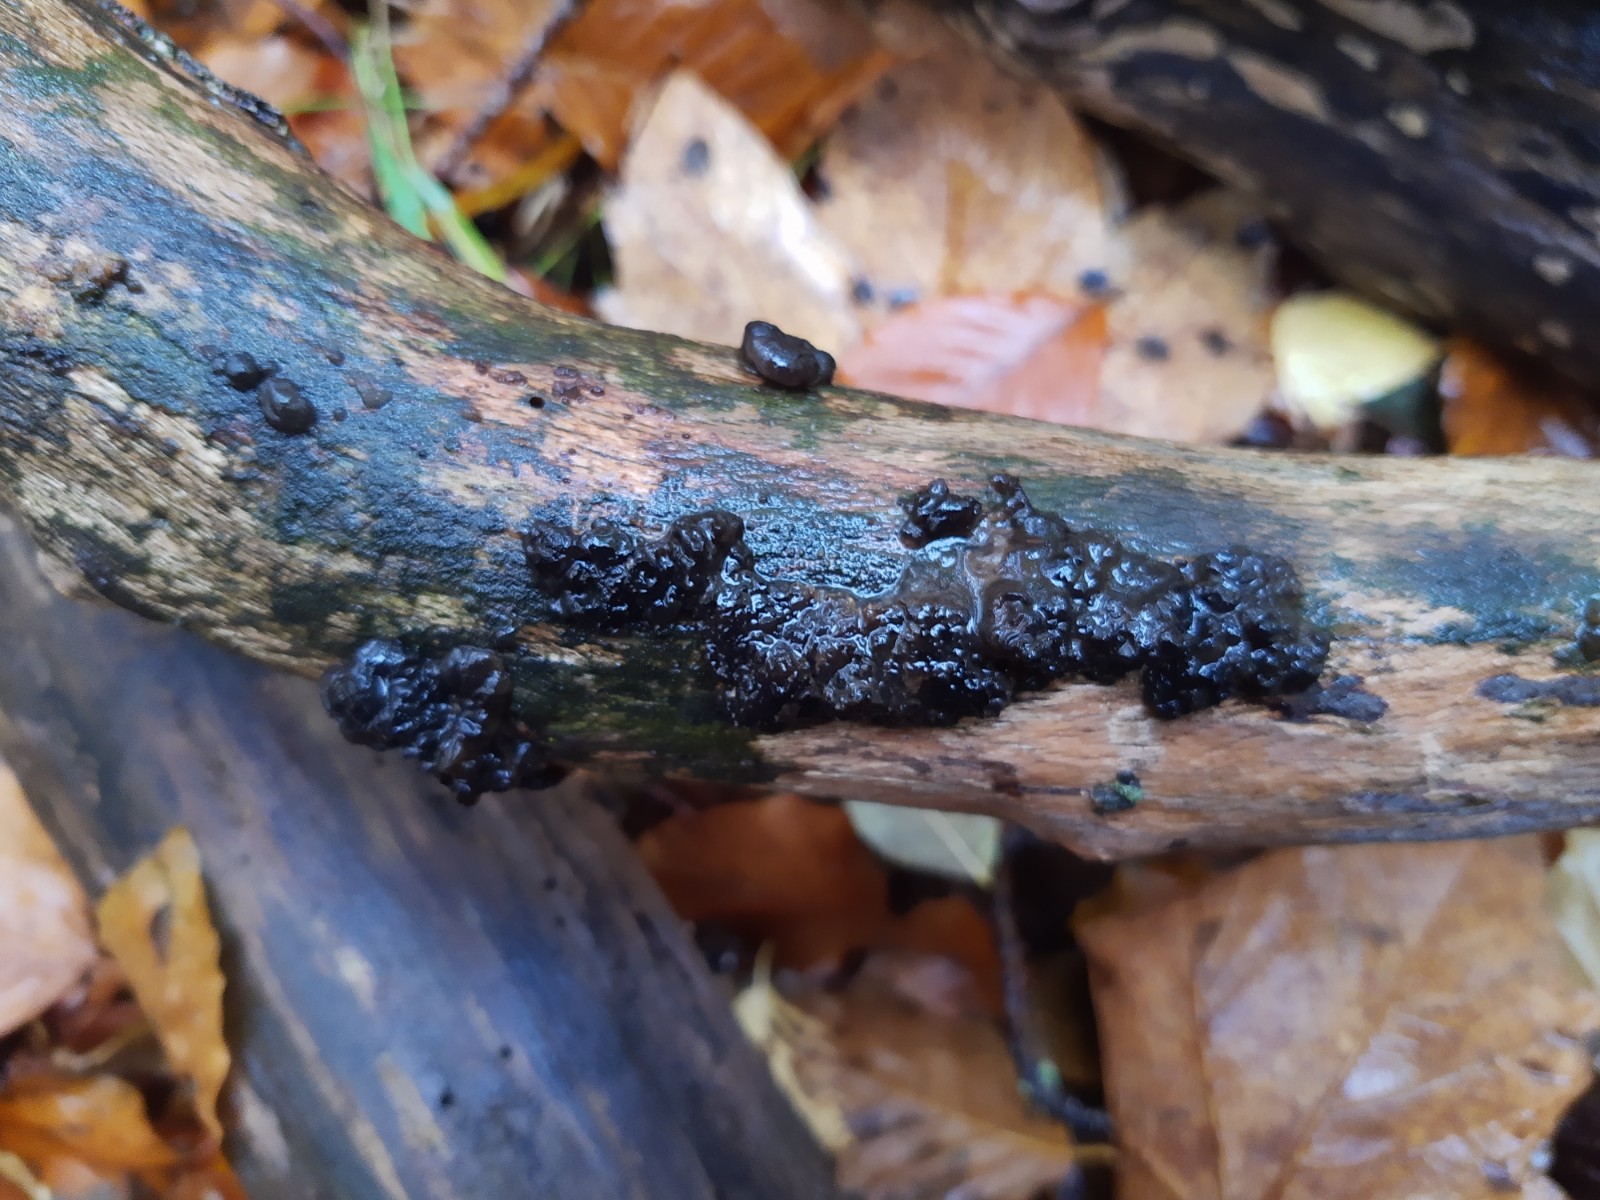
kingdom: Fungi
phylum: Basidiomycota
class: Agaricomycetes
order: Auriculariales
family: Auriculariaceae
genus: Exidia
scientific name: Exidia nigricans
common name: almindelig bævretop
